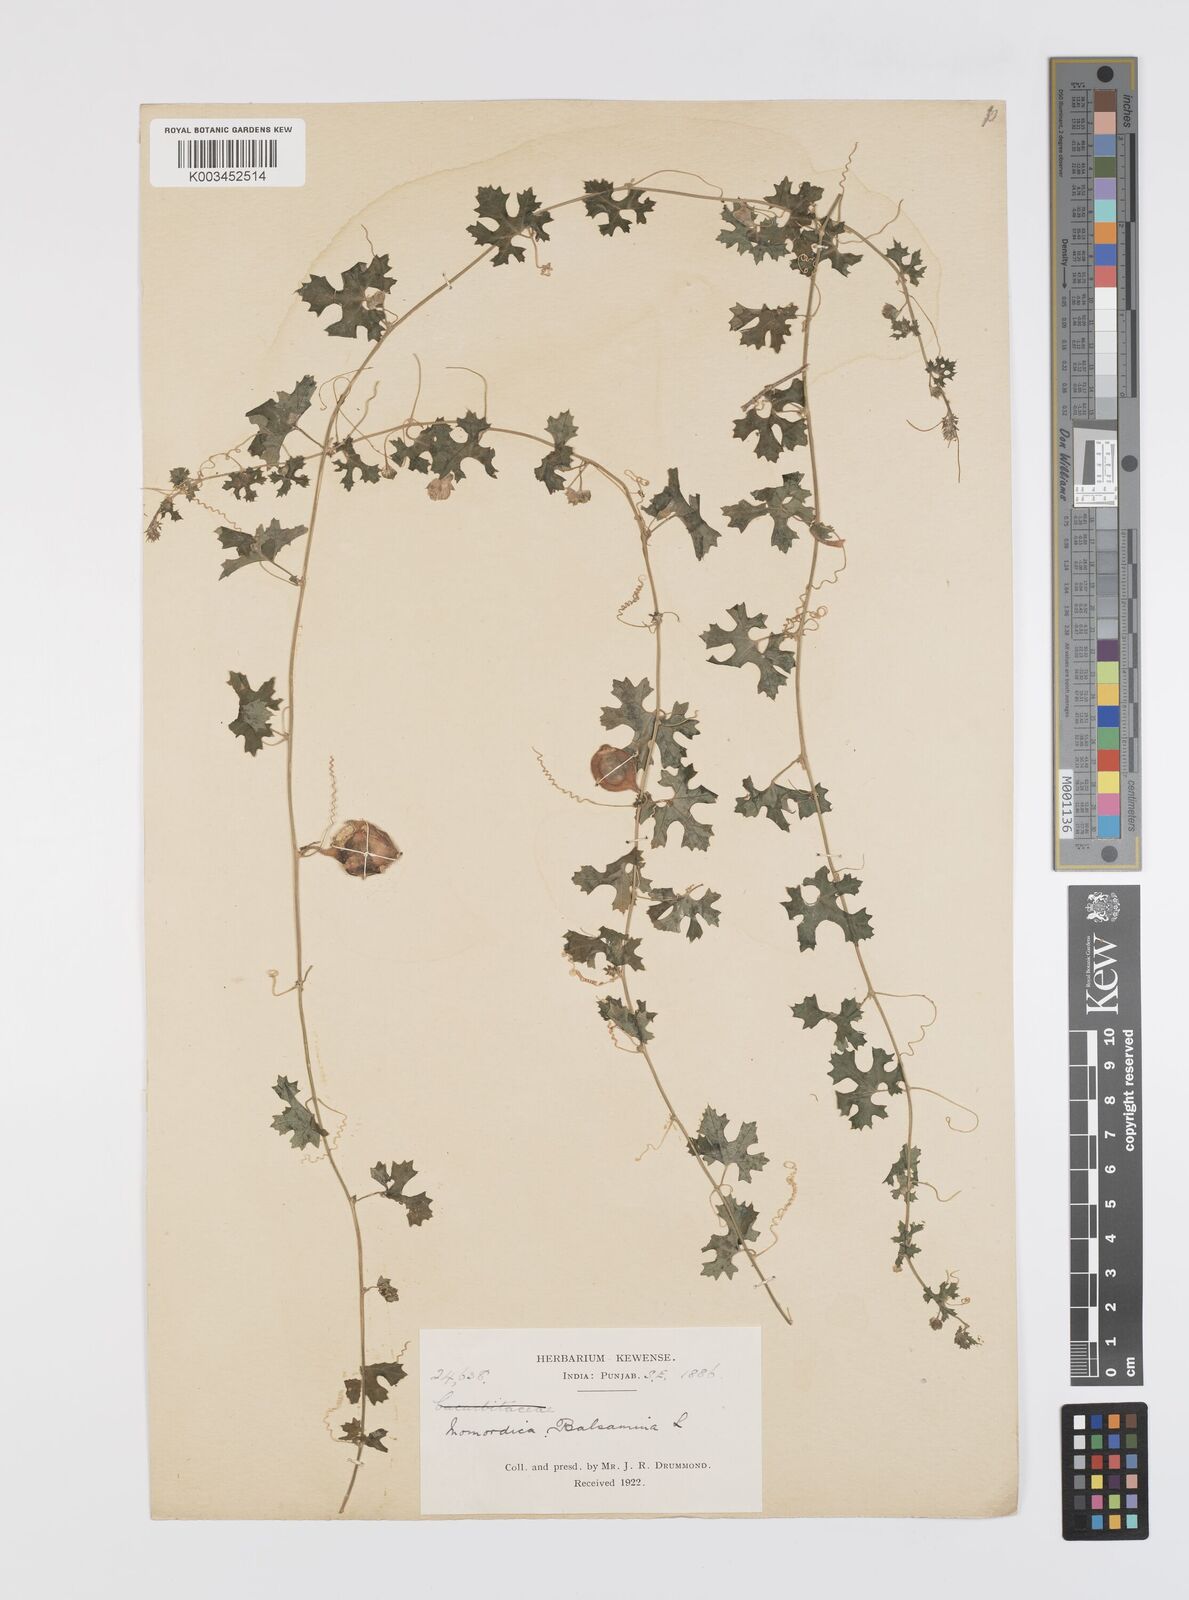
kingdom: Plantae
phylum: Tracheophyta
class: Magnoliopsida
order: Cucurbitales
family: Cucurbitaceae
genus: Momordica
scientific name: Momordica balsamina
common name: Southern balsampear
